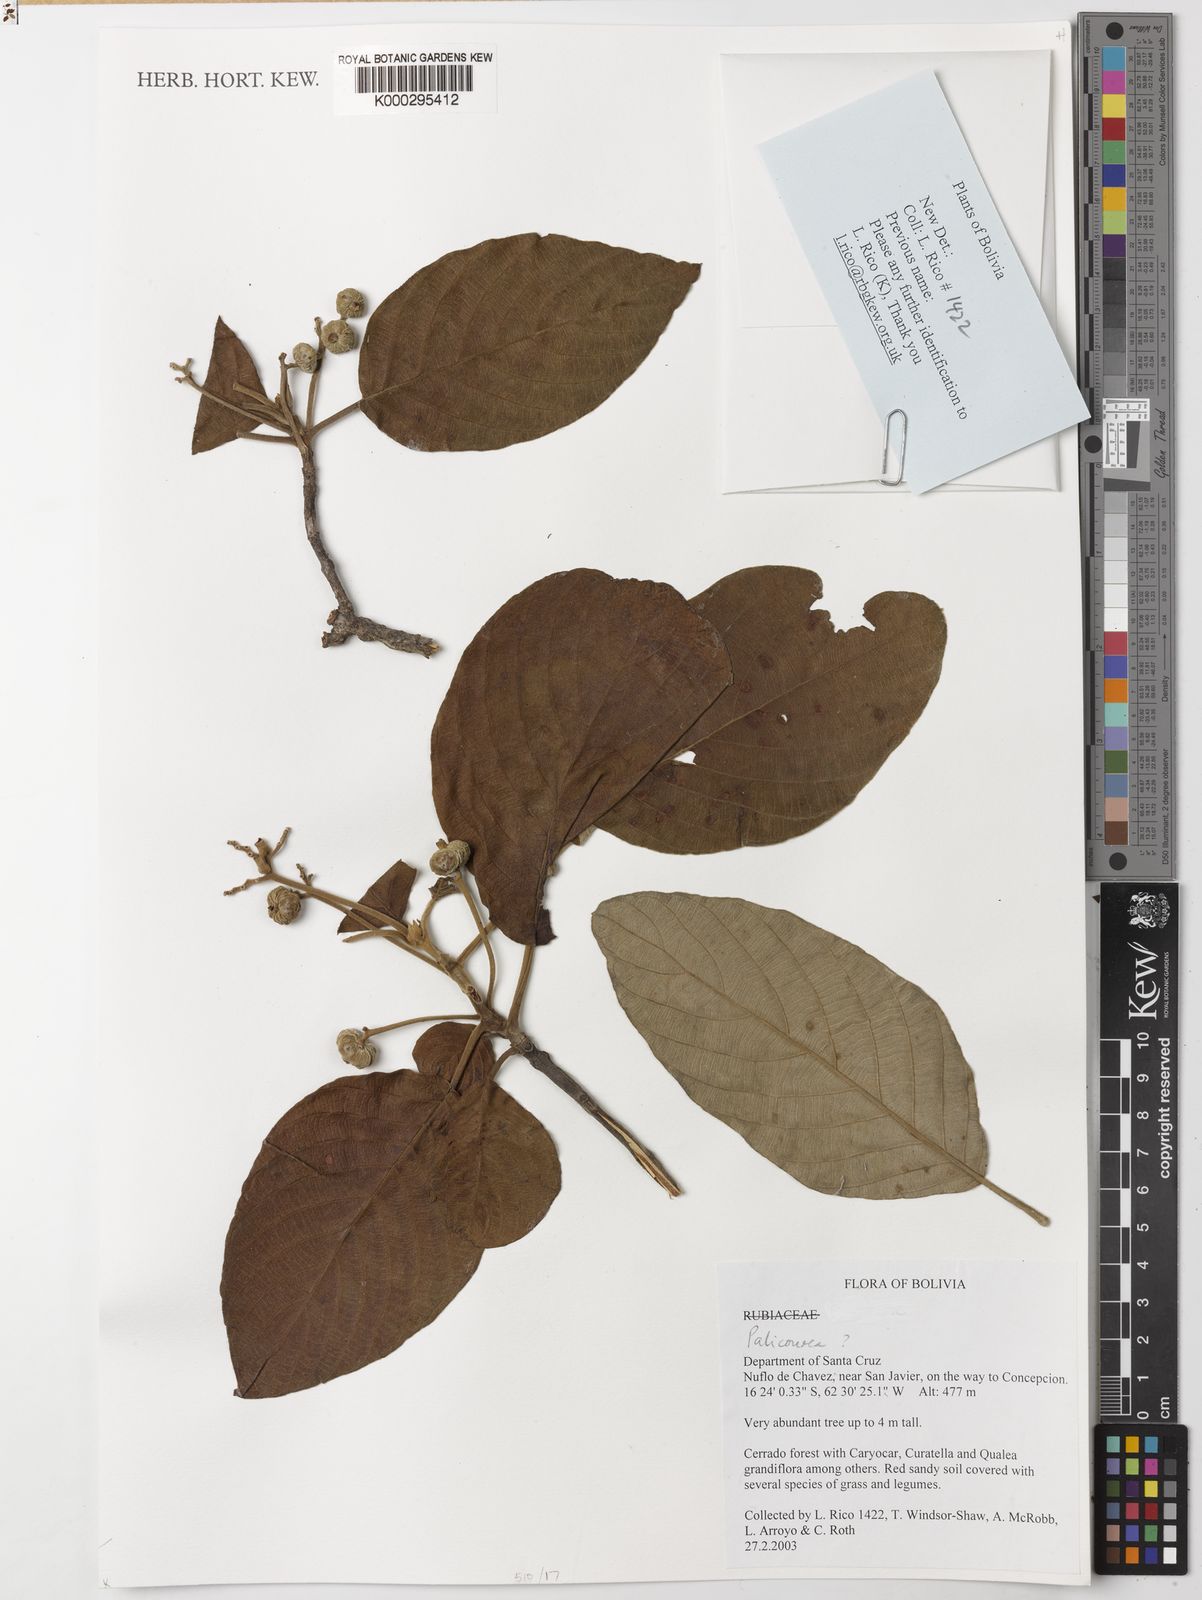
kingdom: Plantae
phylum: Tracheophyta
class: Magnoliopsida
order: Gentianales
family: Rubiaceae
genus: Guettarda
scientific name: Guettarda viburnoides
